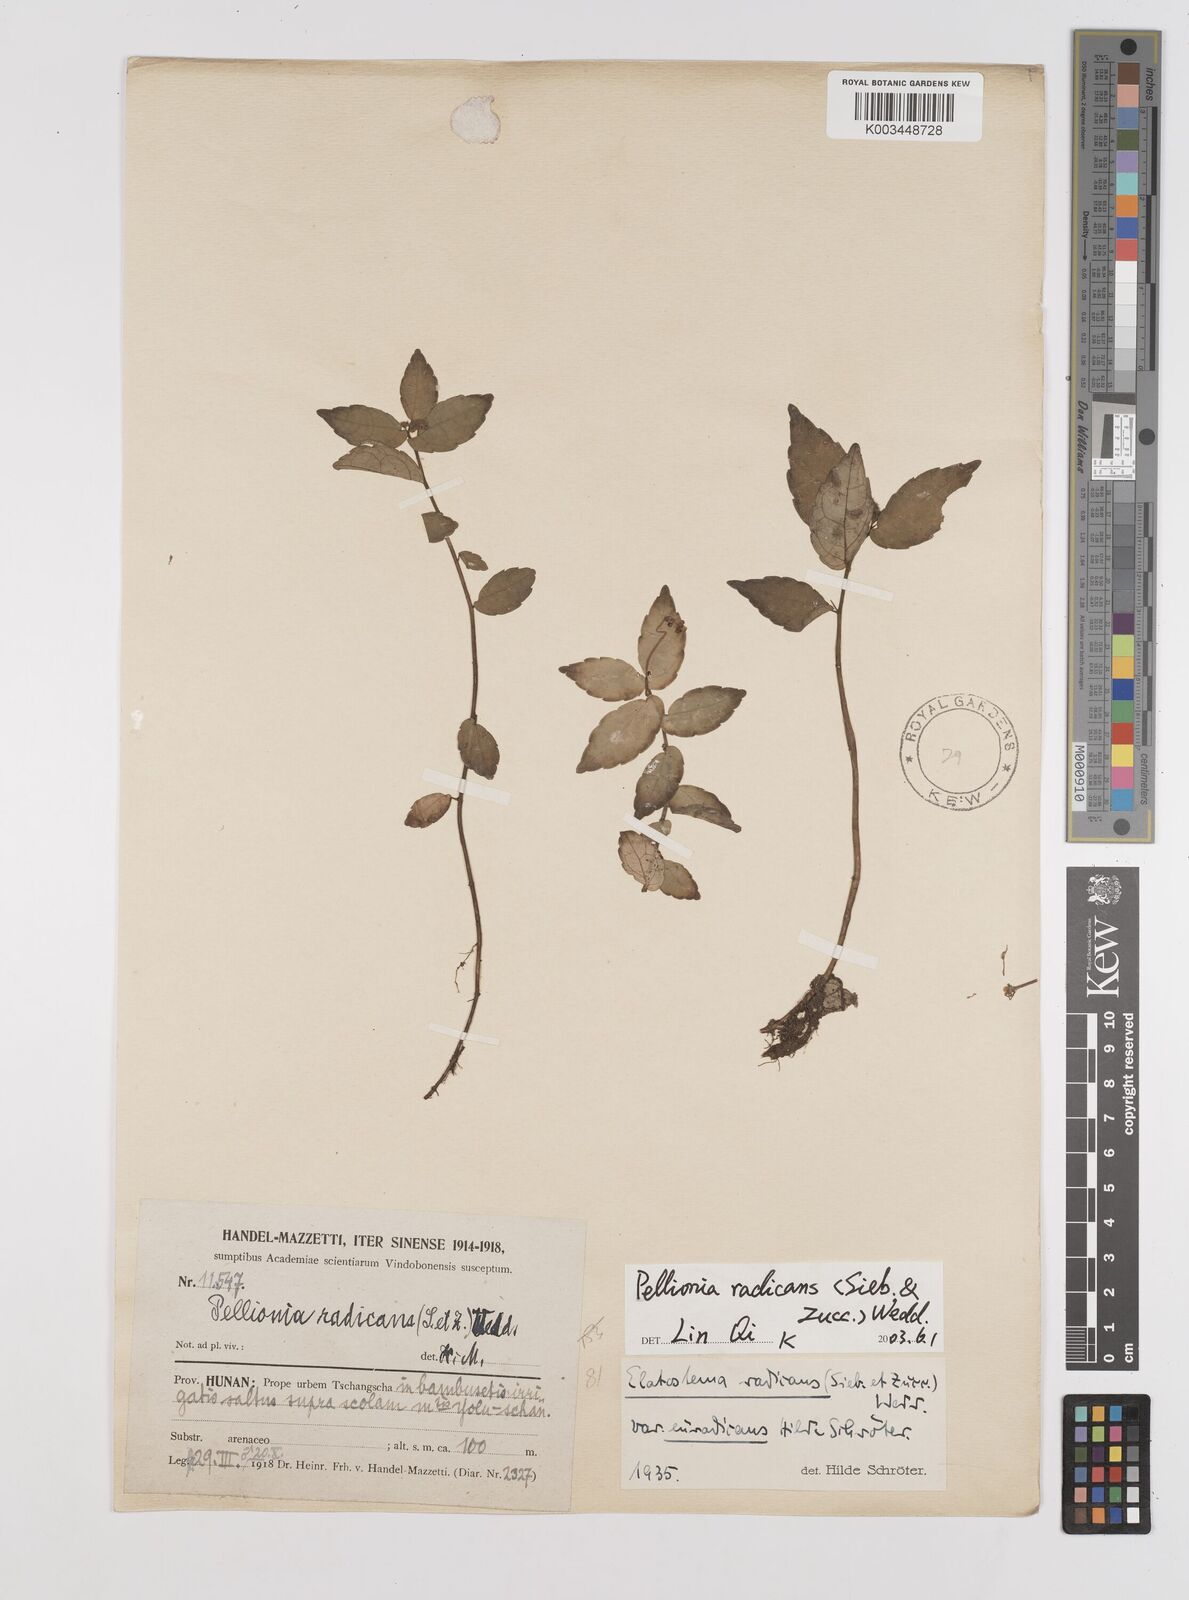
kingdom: Plantae
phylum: Tracheophyta
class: Magnoliopsida
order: Rosales
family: Urticaceae
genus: Elatostema
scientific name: Elatostema radicans
